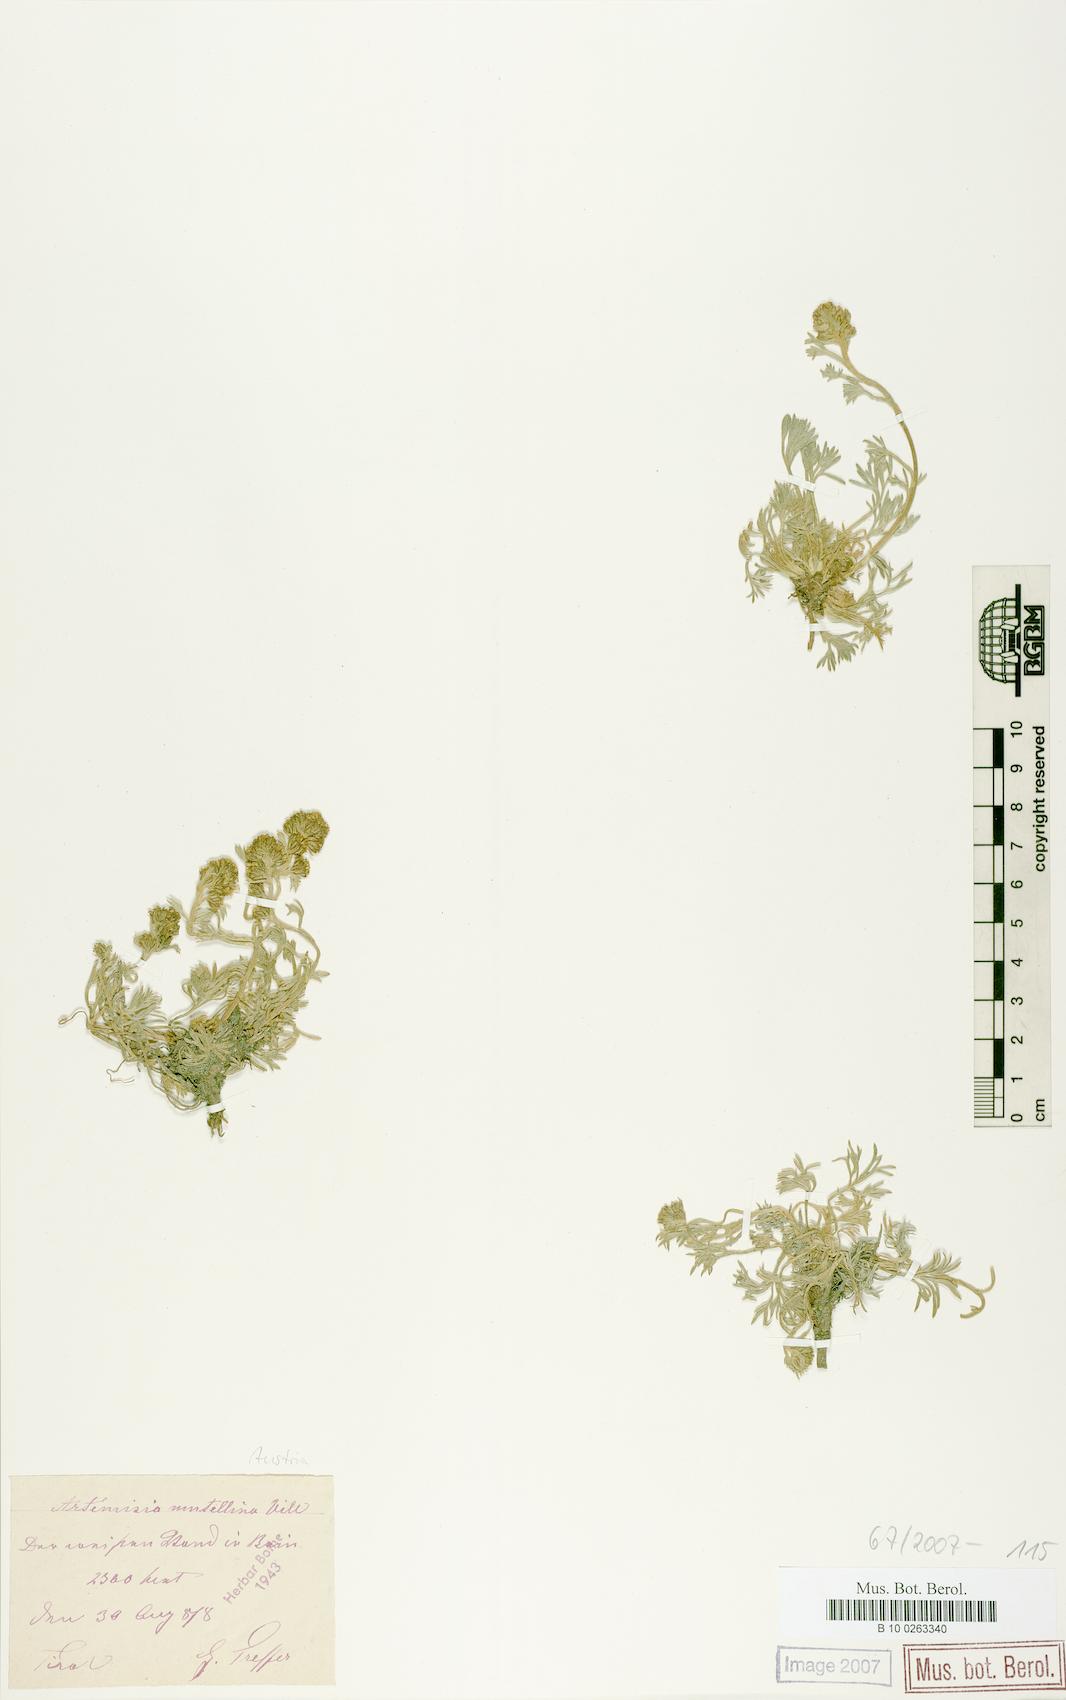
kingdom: Plantae
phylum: Tracheophyta
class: Magnoliopsida
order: Asterales
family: Asteraceae
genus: Artemisia
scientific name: Artemisia mutellina
